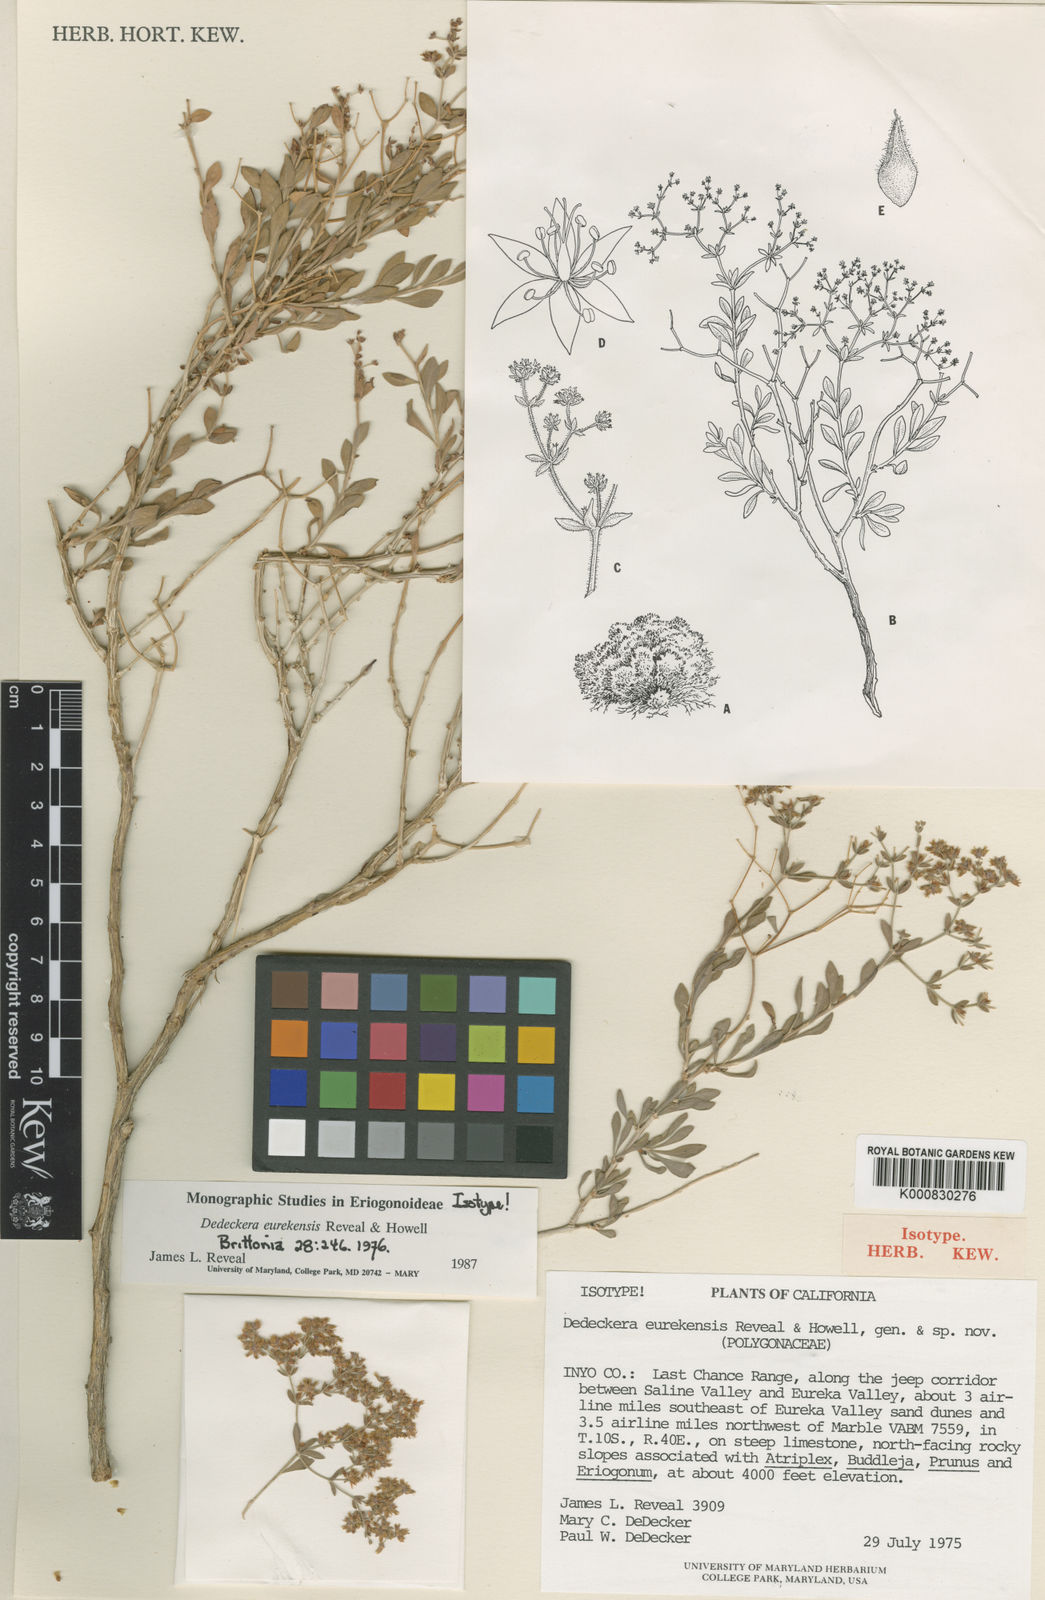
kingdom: Plantae
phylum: Tracheophyta
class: Magnoliopsida
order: Caryophyllales
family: Polygonaceae
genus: Dedeckera
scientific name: Dedeckera eurekensis
